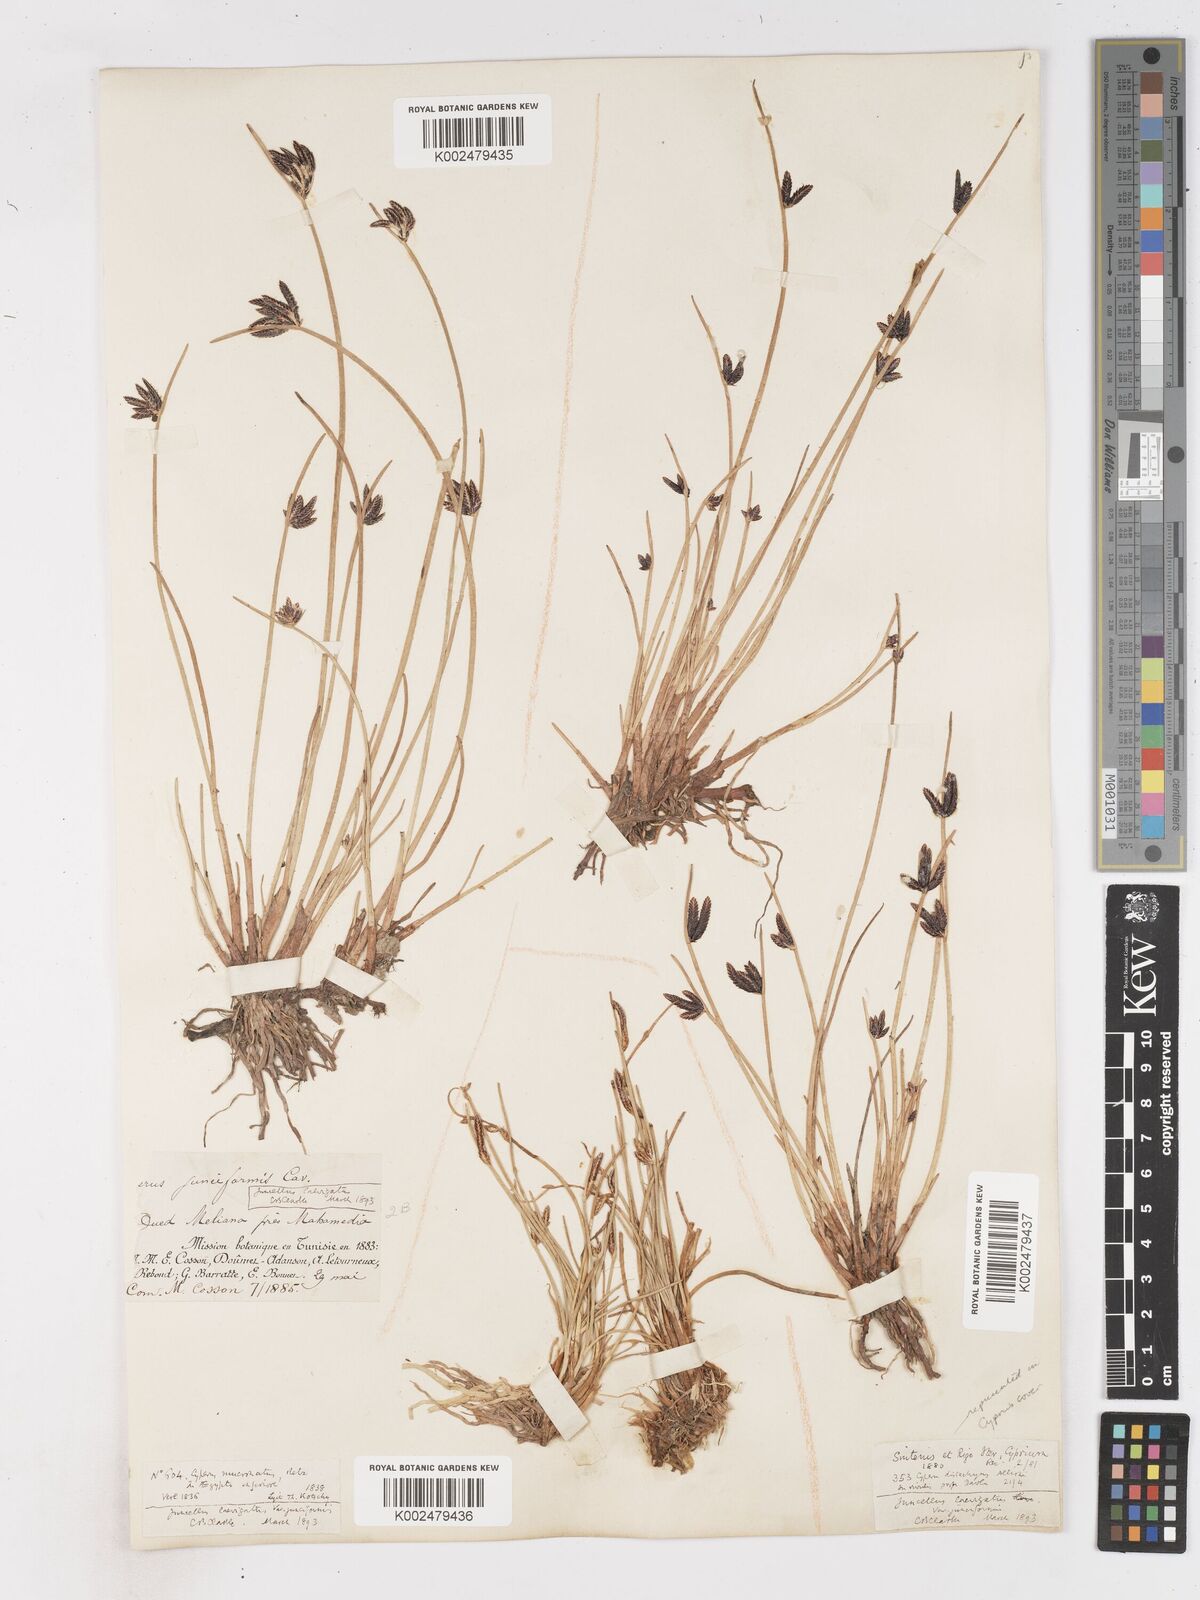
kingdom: Plantae
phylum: Tracheophyta
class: Liliopsida
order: Poales
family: Cyperaceae
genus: Cyperus
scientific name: Cyperus laevigatus
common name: Smooth flat sedge
